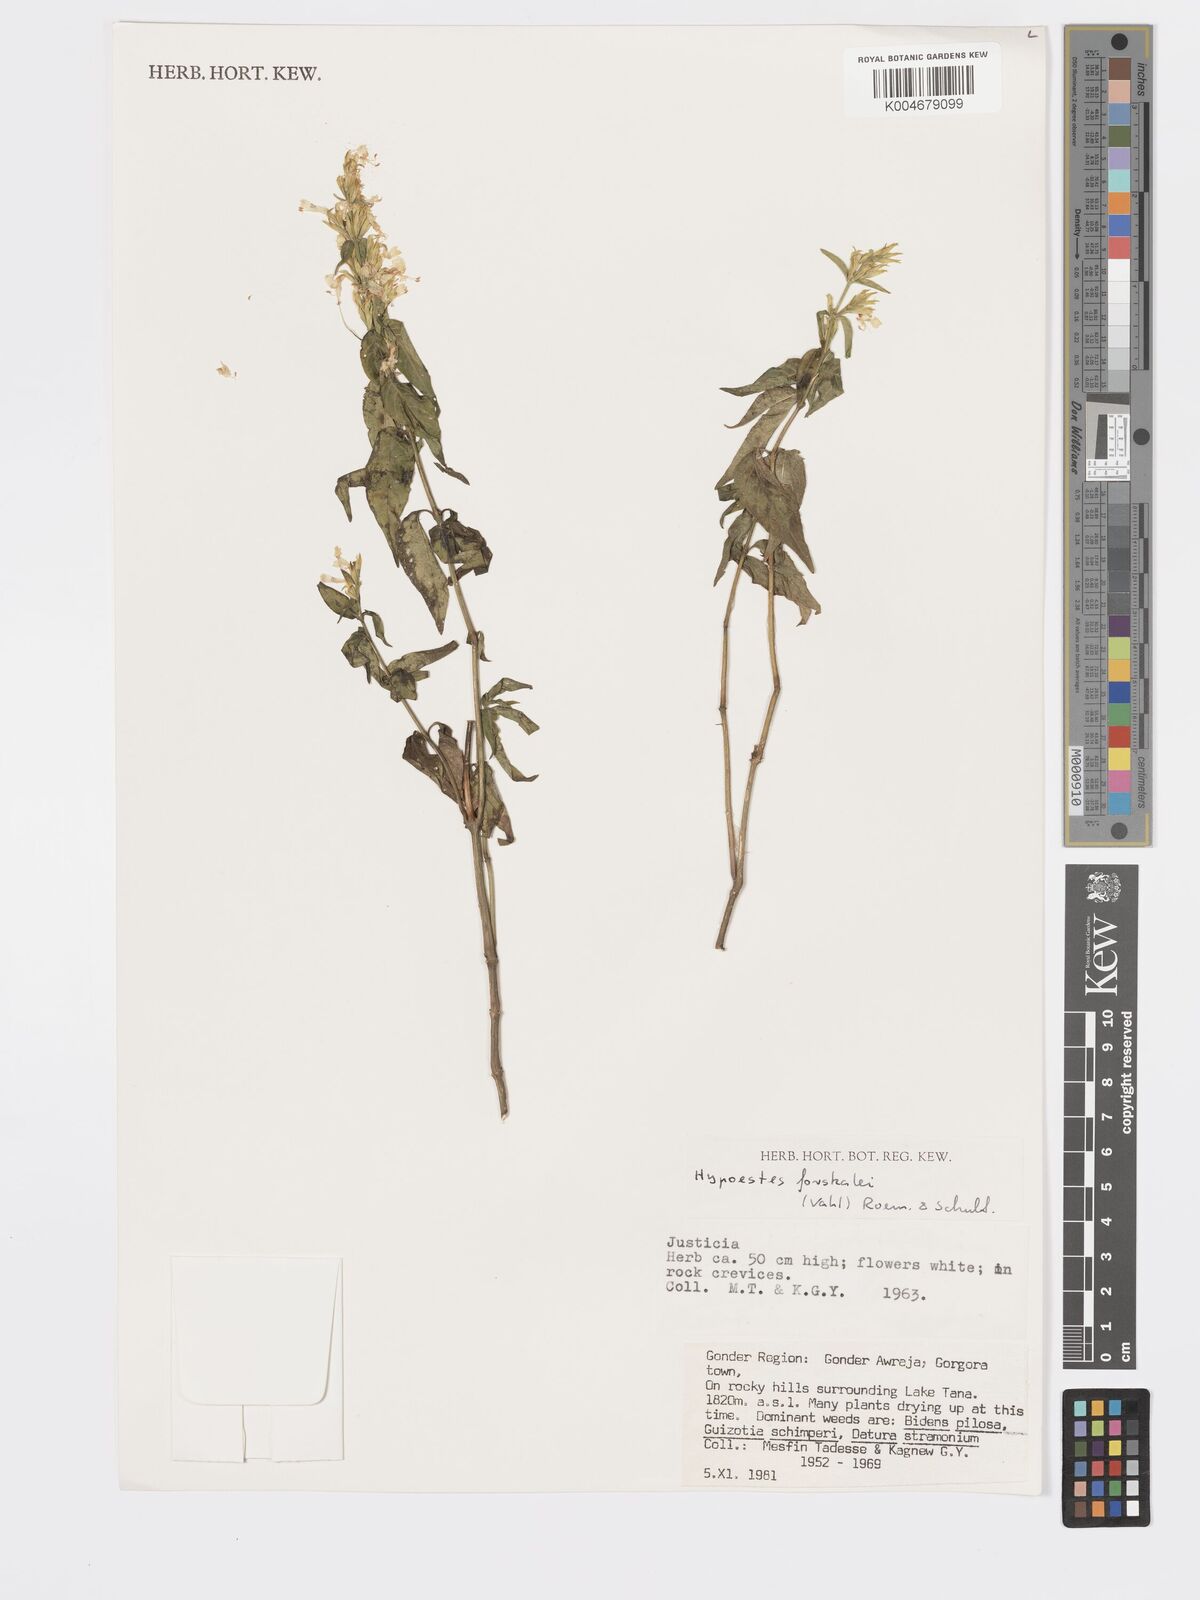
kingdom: Plantae
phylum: Tracheophyta
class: Magnoliopsida
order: Lamiales
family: Acanthaceae
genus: Hypoestes
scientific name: Hypoestes forskaolii
